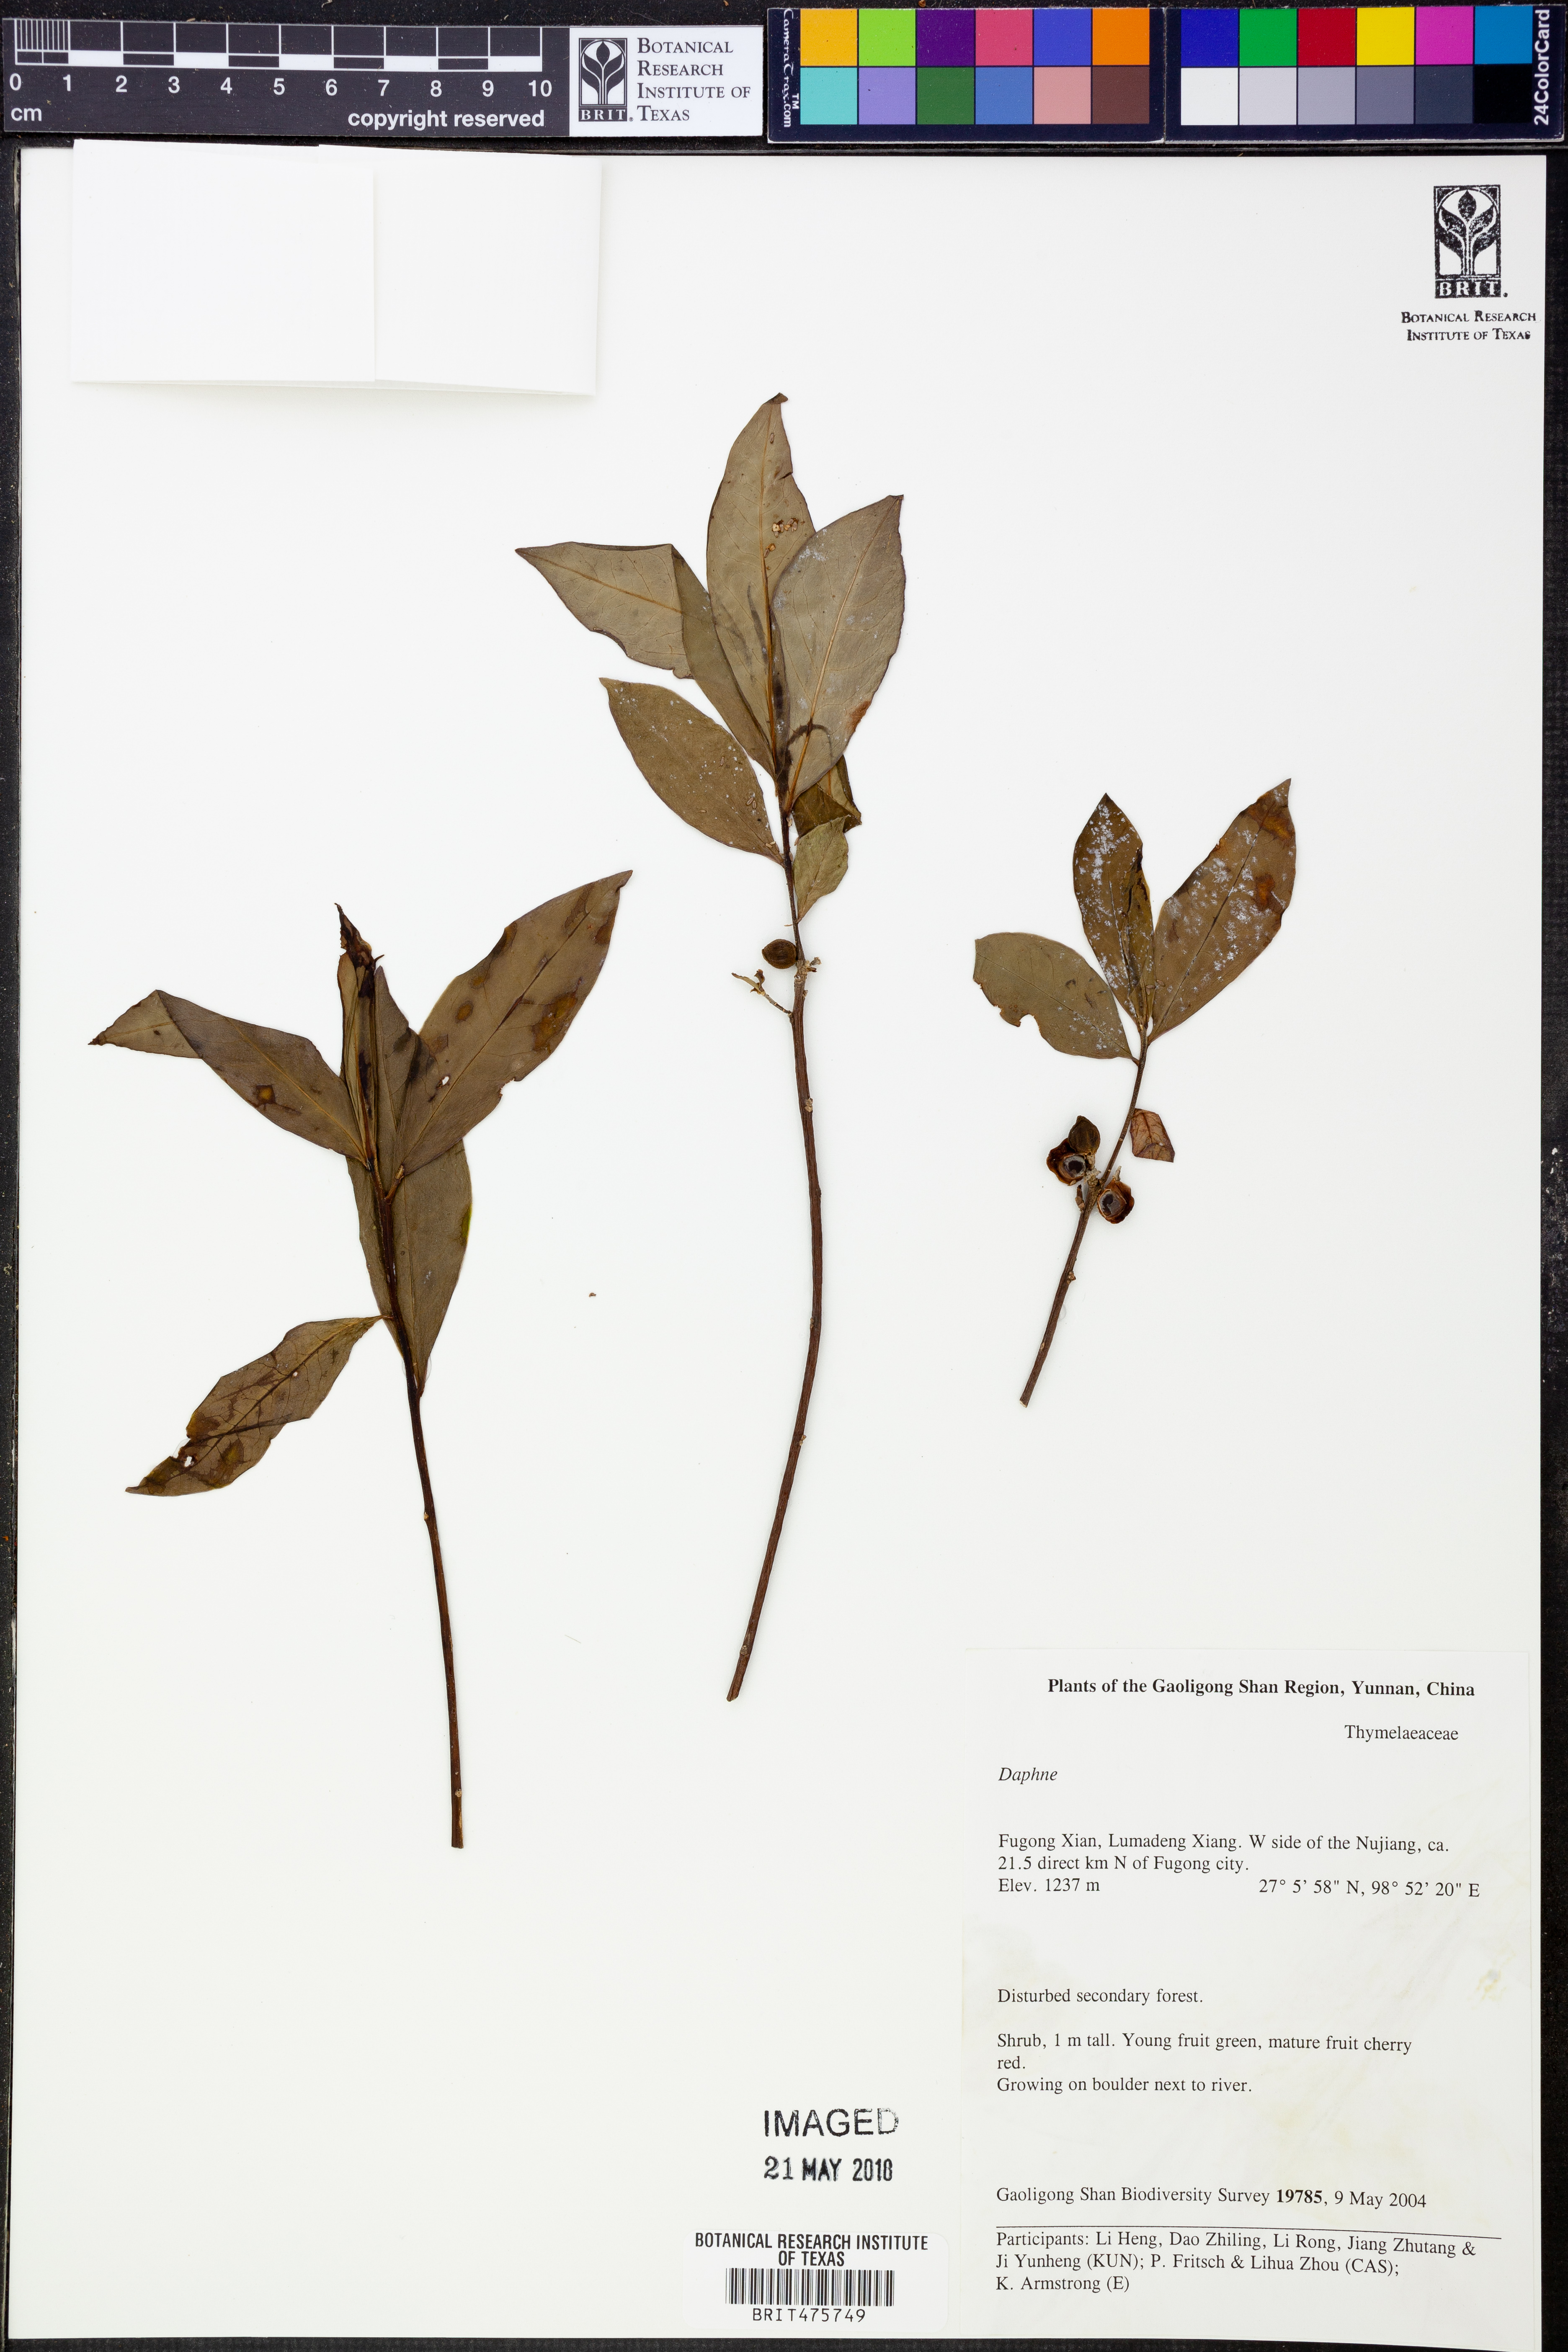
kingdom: Plantae
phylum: Tracheophyta
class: Magnoliopsida
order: Malvales
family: Thymelaeaceae
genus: Daphne
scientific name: Daphne
